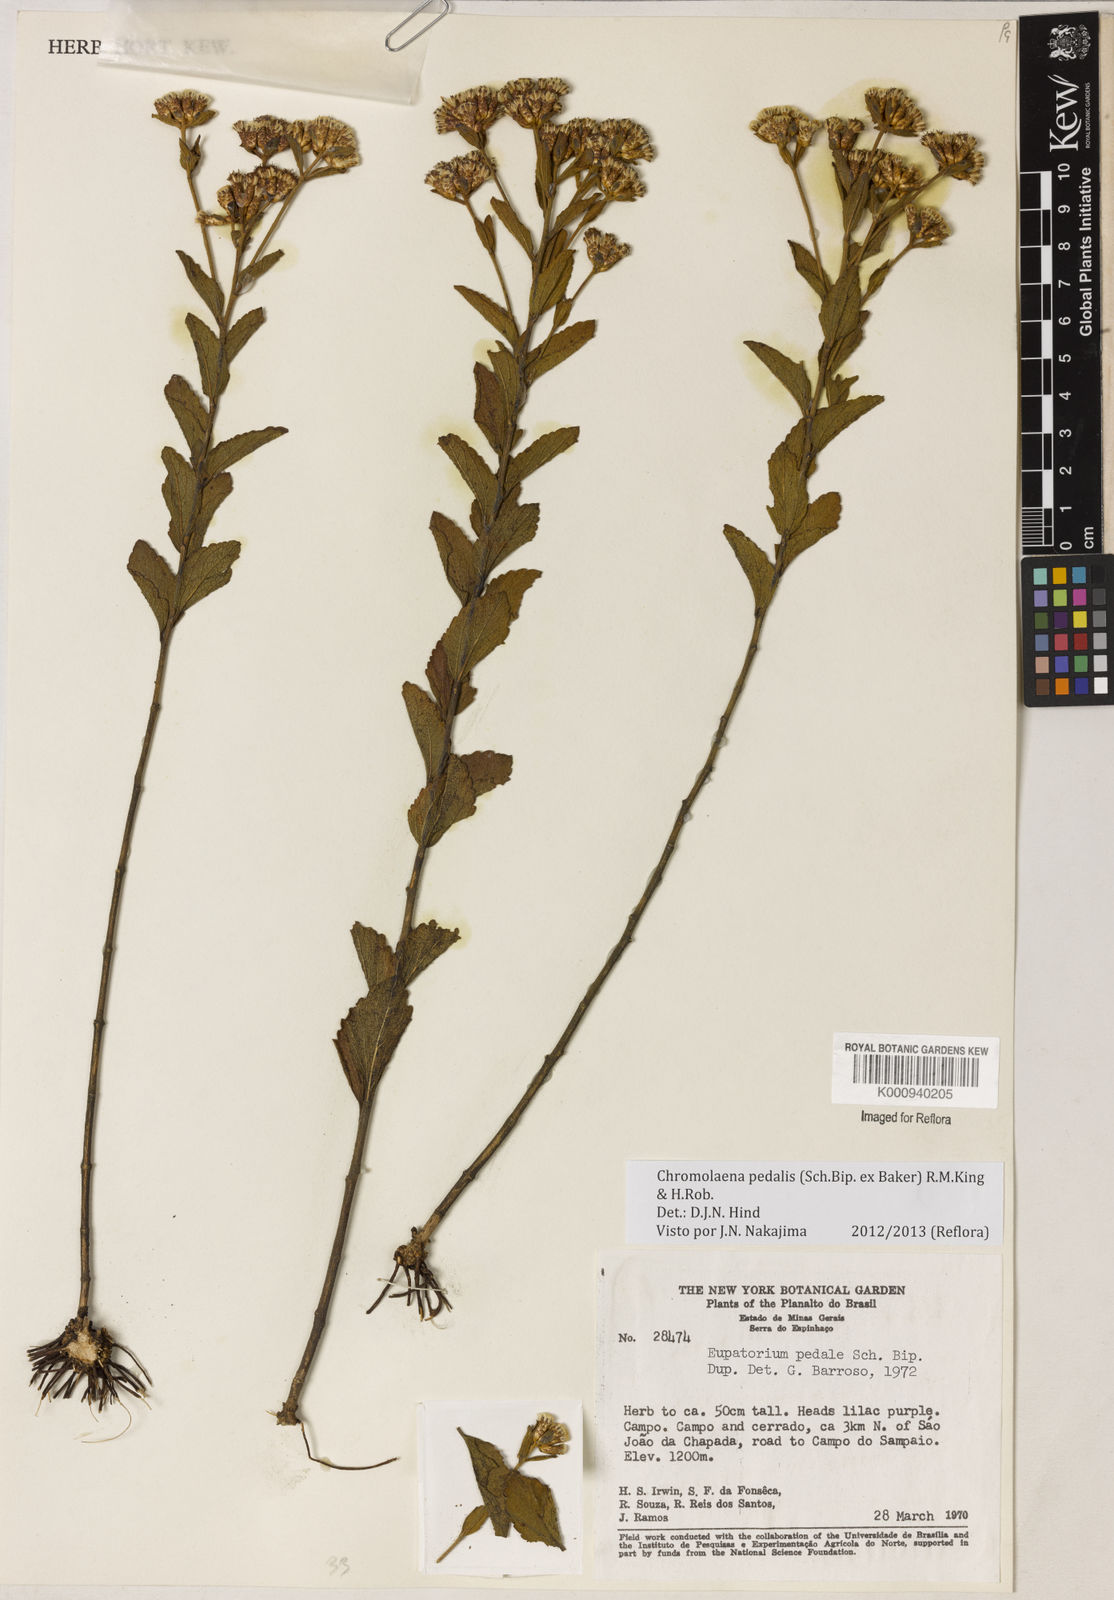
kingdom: Plantae
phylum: Tracheophyta
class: Magnoliopsida
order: Asterales
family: Asteraceae
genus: Chromolaena
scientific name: Chromolaena pedalis
